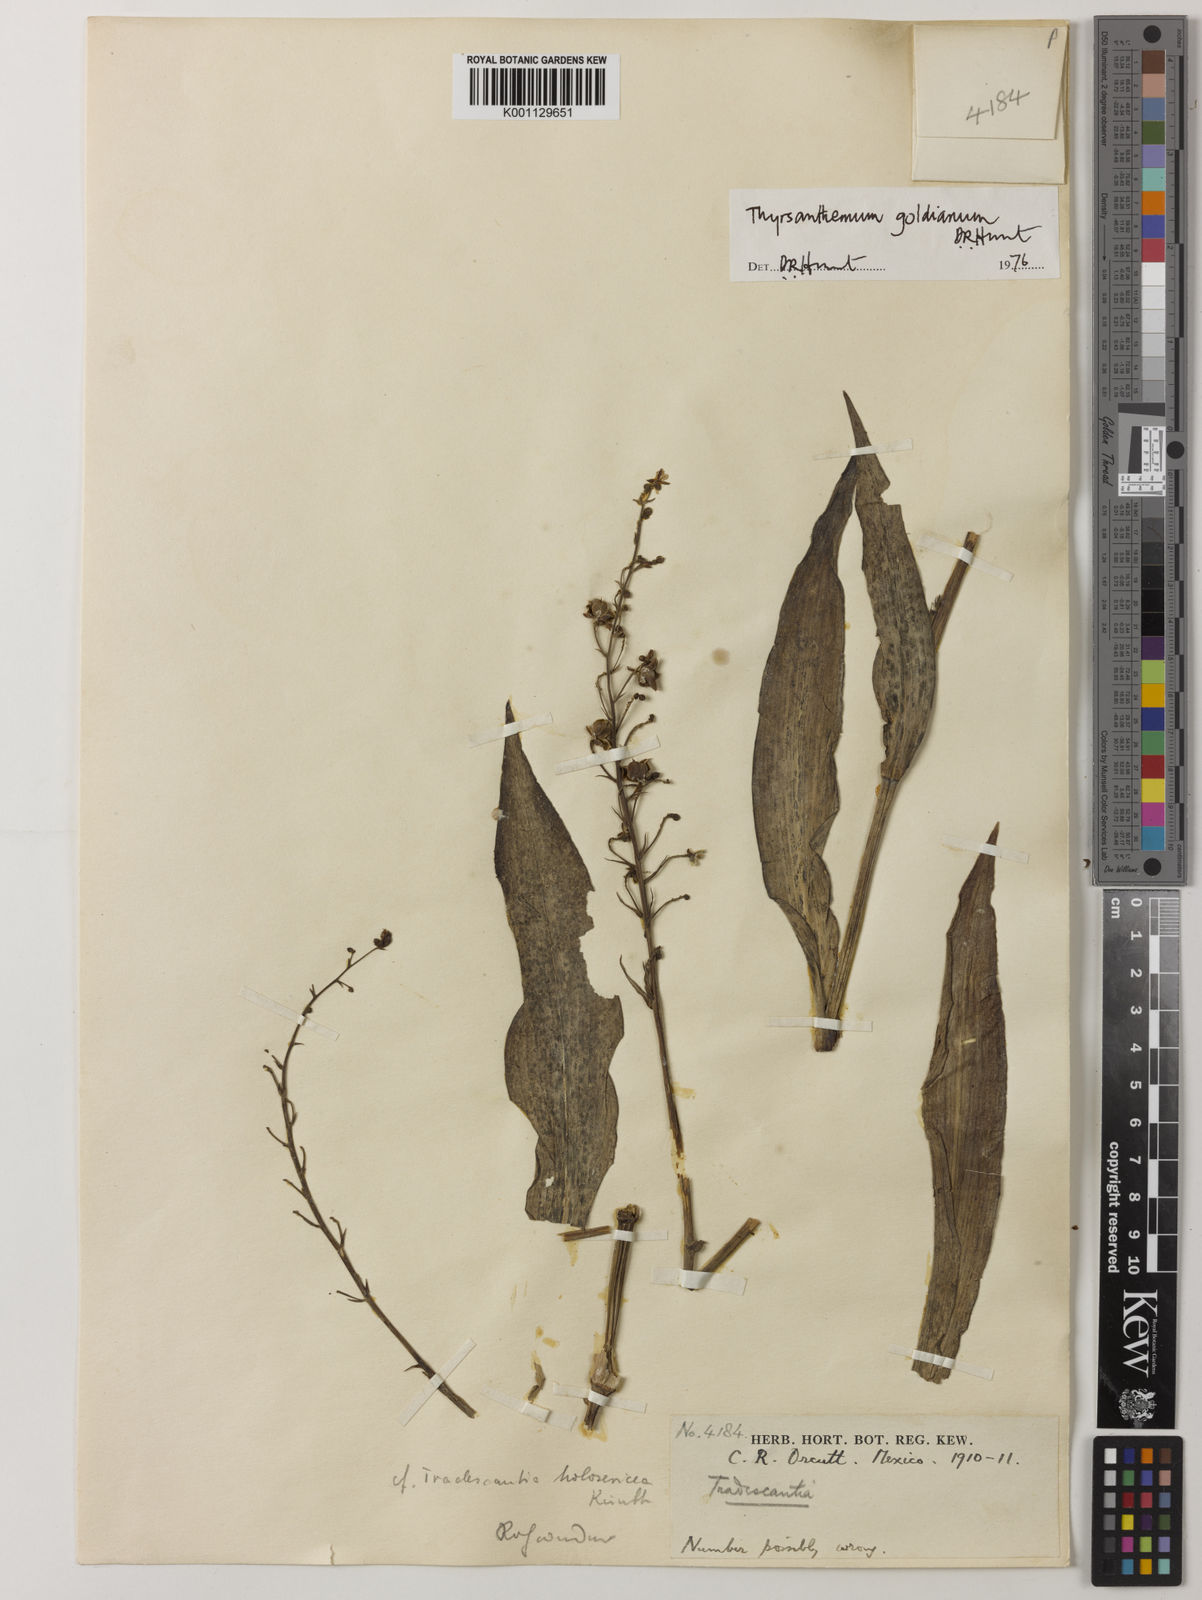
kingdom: Plantae
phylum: Tracheophyta
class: Liliopsida
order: Commelinales
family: Commelinaceae
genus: Thyrsanthemum
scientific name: Thyrsanthemum goldianum
